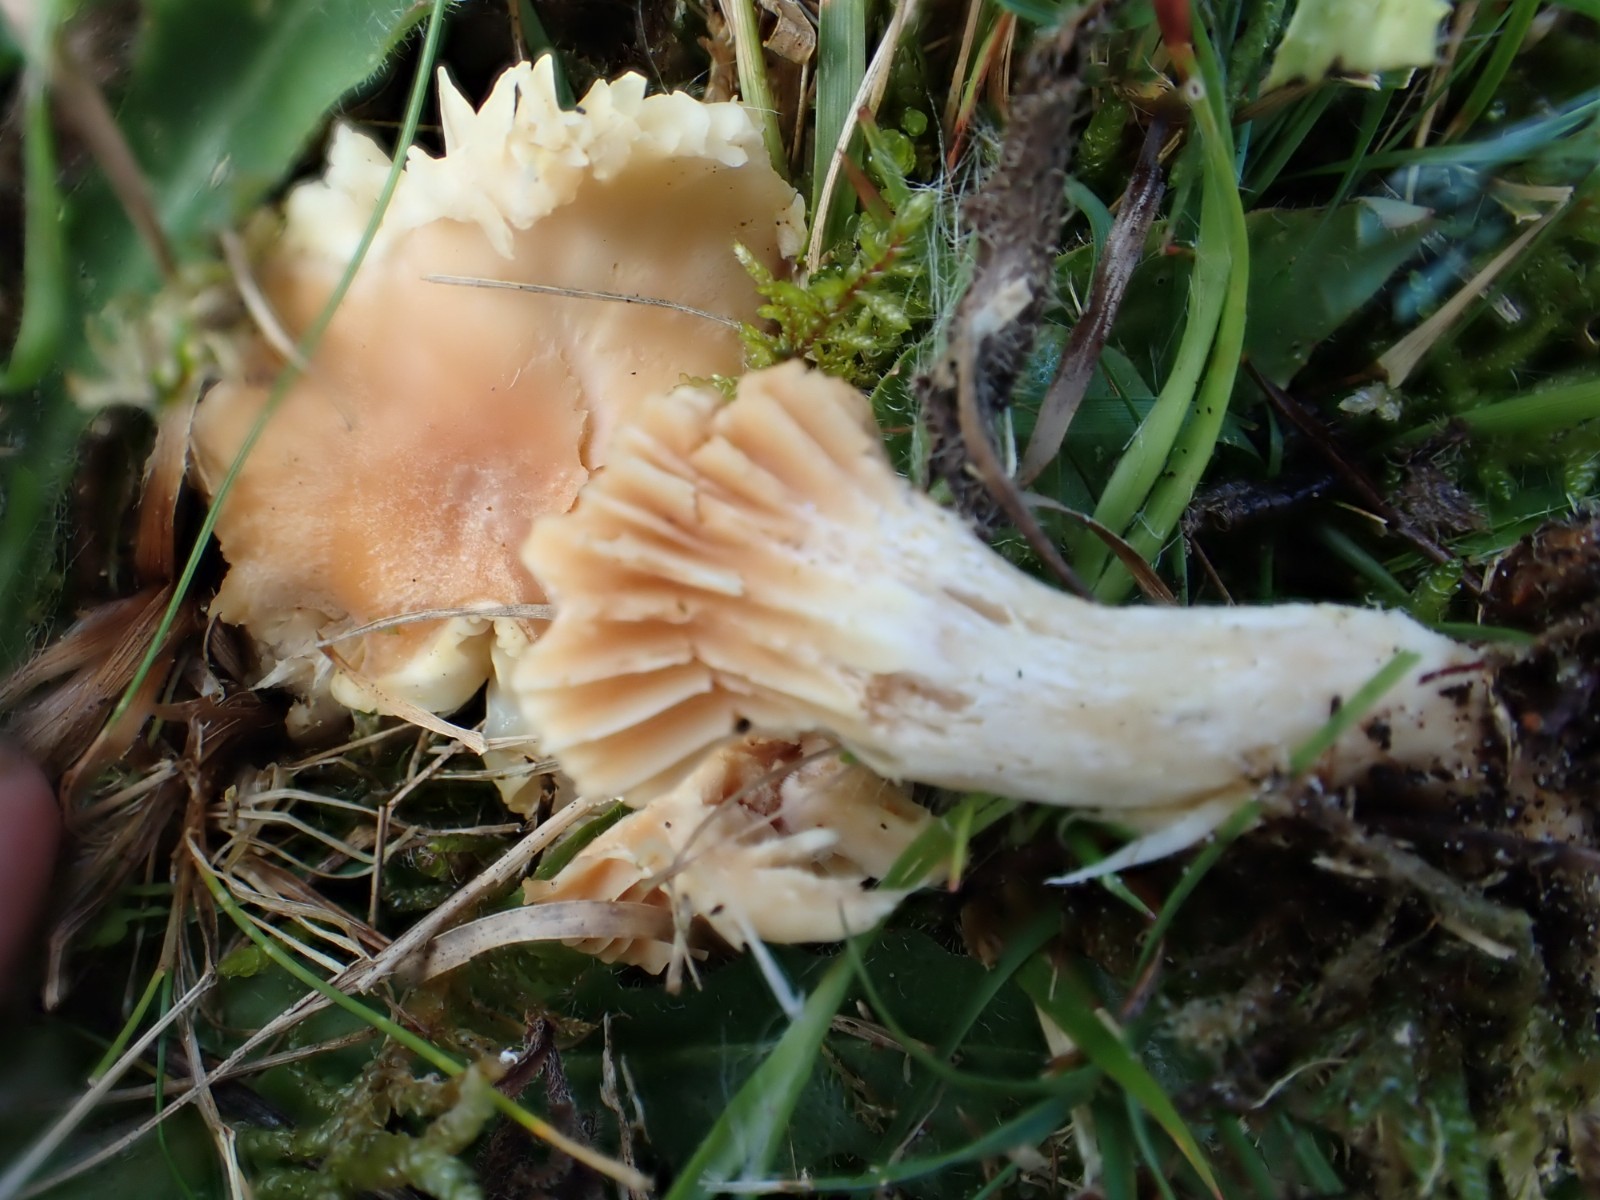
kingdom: Fungi
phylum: Basidiomycota
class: Agaricomycetes
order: Agaricales
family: Hygrophoraceae
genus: Cuphophyllus
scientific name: Cuphophyllus pratensis
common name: eng-vokshat
